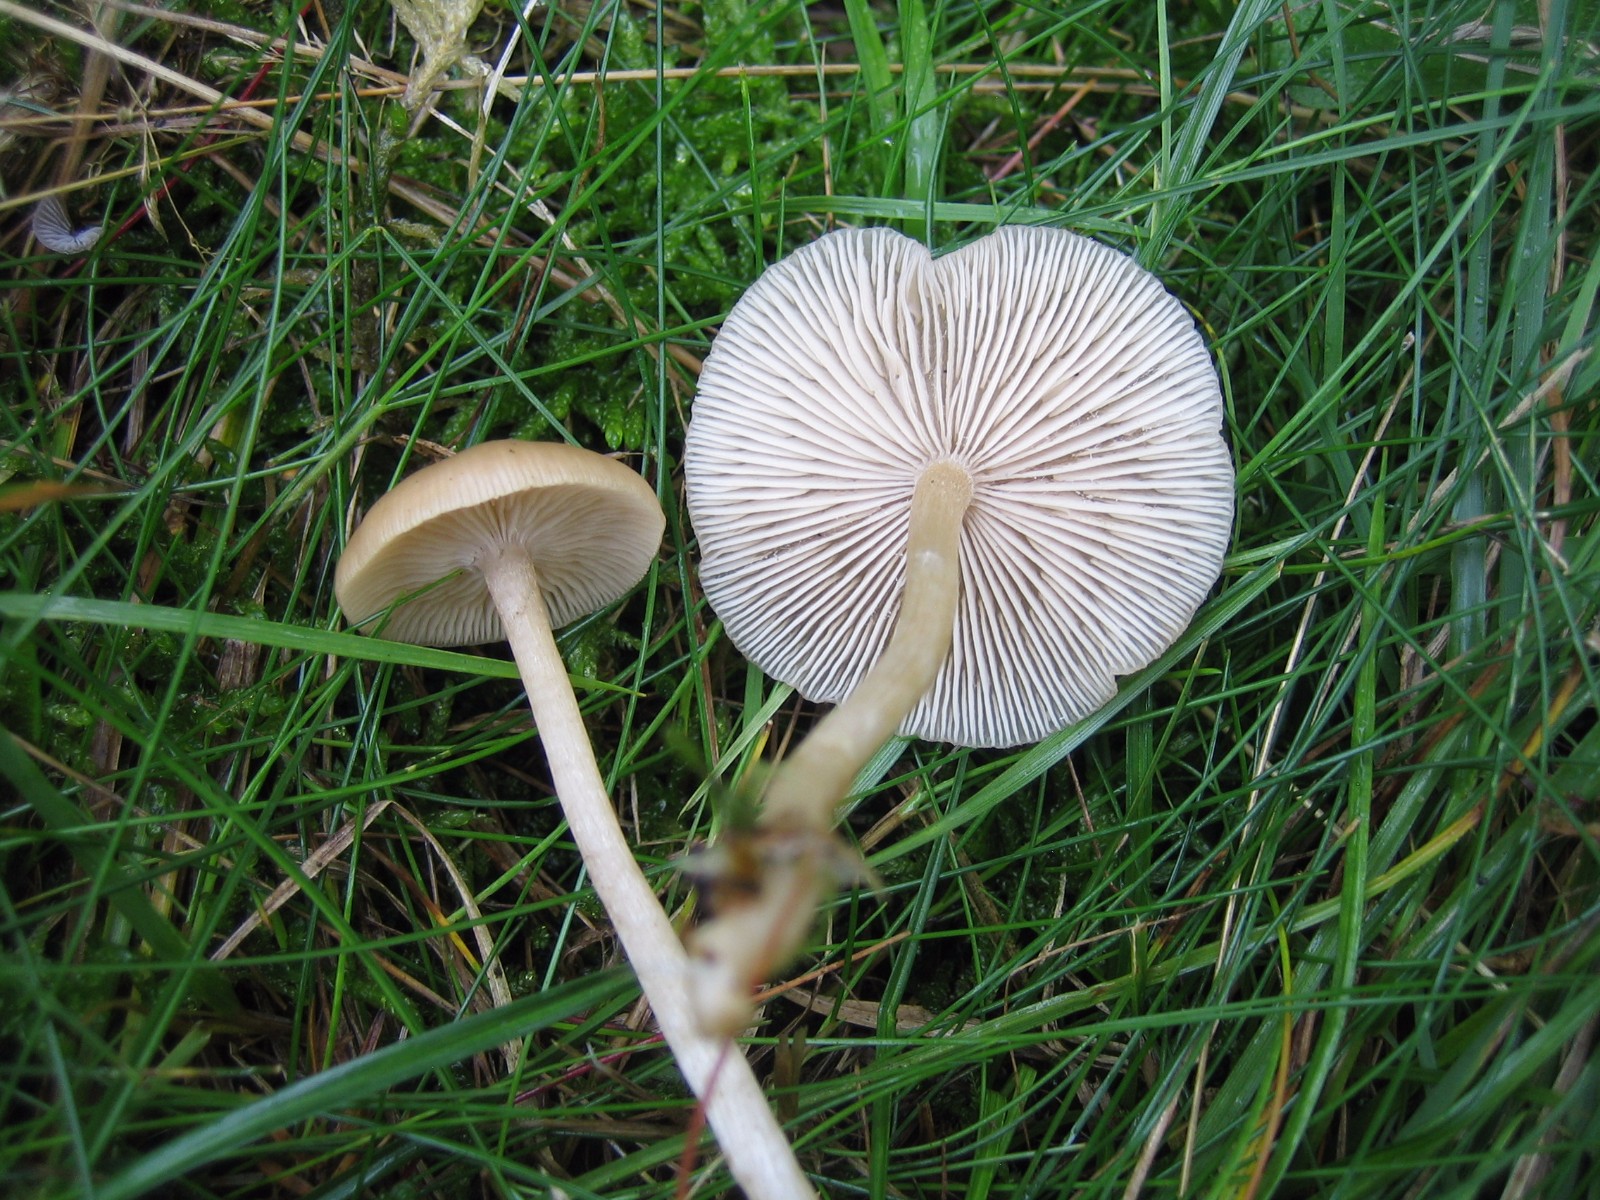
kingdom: Fungi
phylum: Basidiomycota
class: Agaricomycetes
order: Agaricales
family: Tricholomataceae
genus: Clitocybe
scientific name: Clitocybe fragrans
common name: vellugtende tragthat
